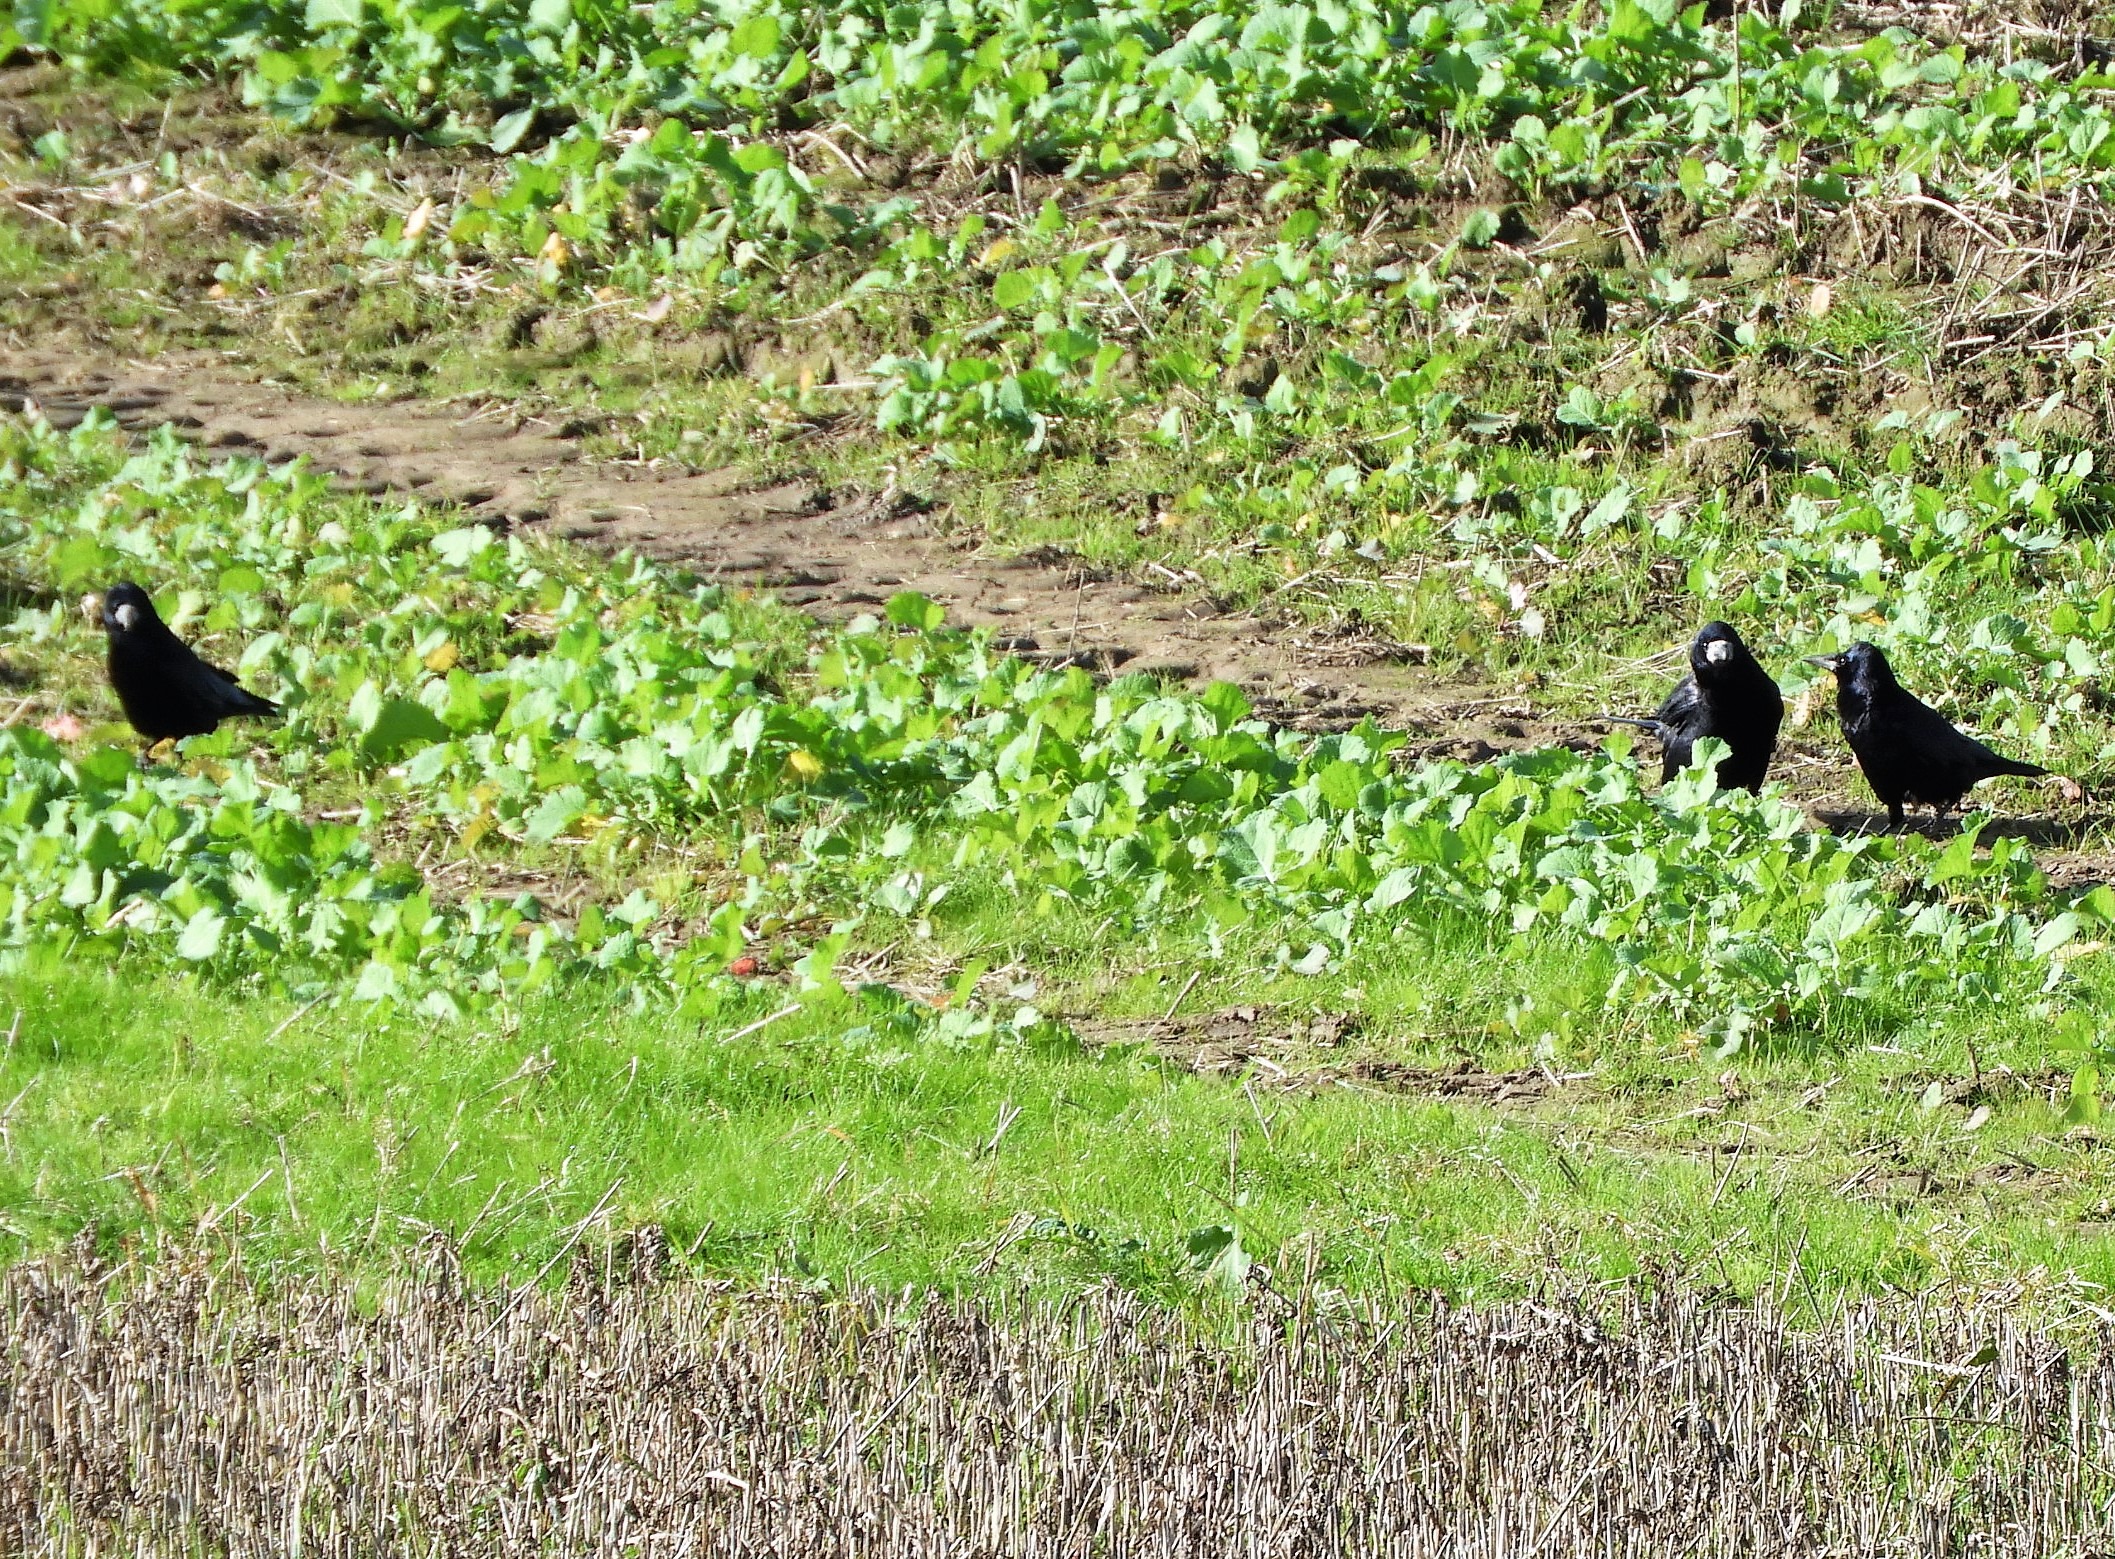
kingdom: Animalia
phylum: Chordata
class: Aves
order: Passeriformes
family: Corvidae
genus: Corvus
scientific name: Corvus frugilegus
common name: Råge
